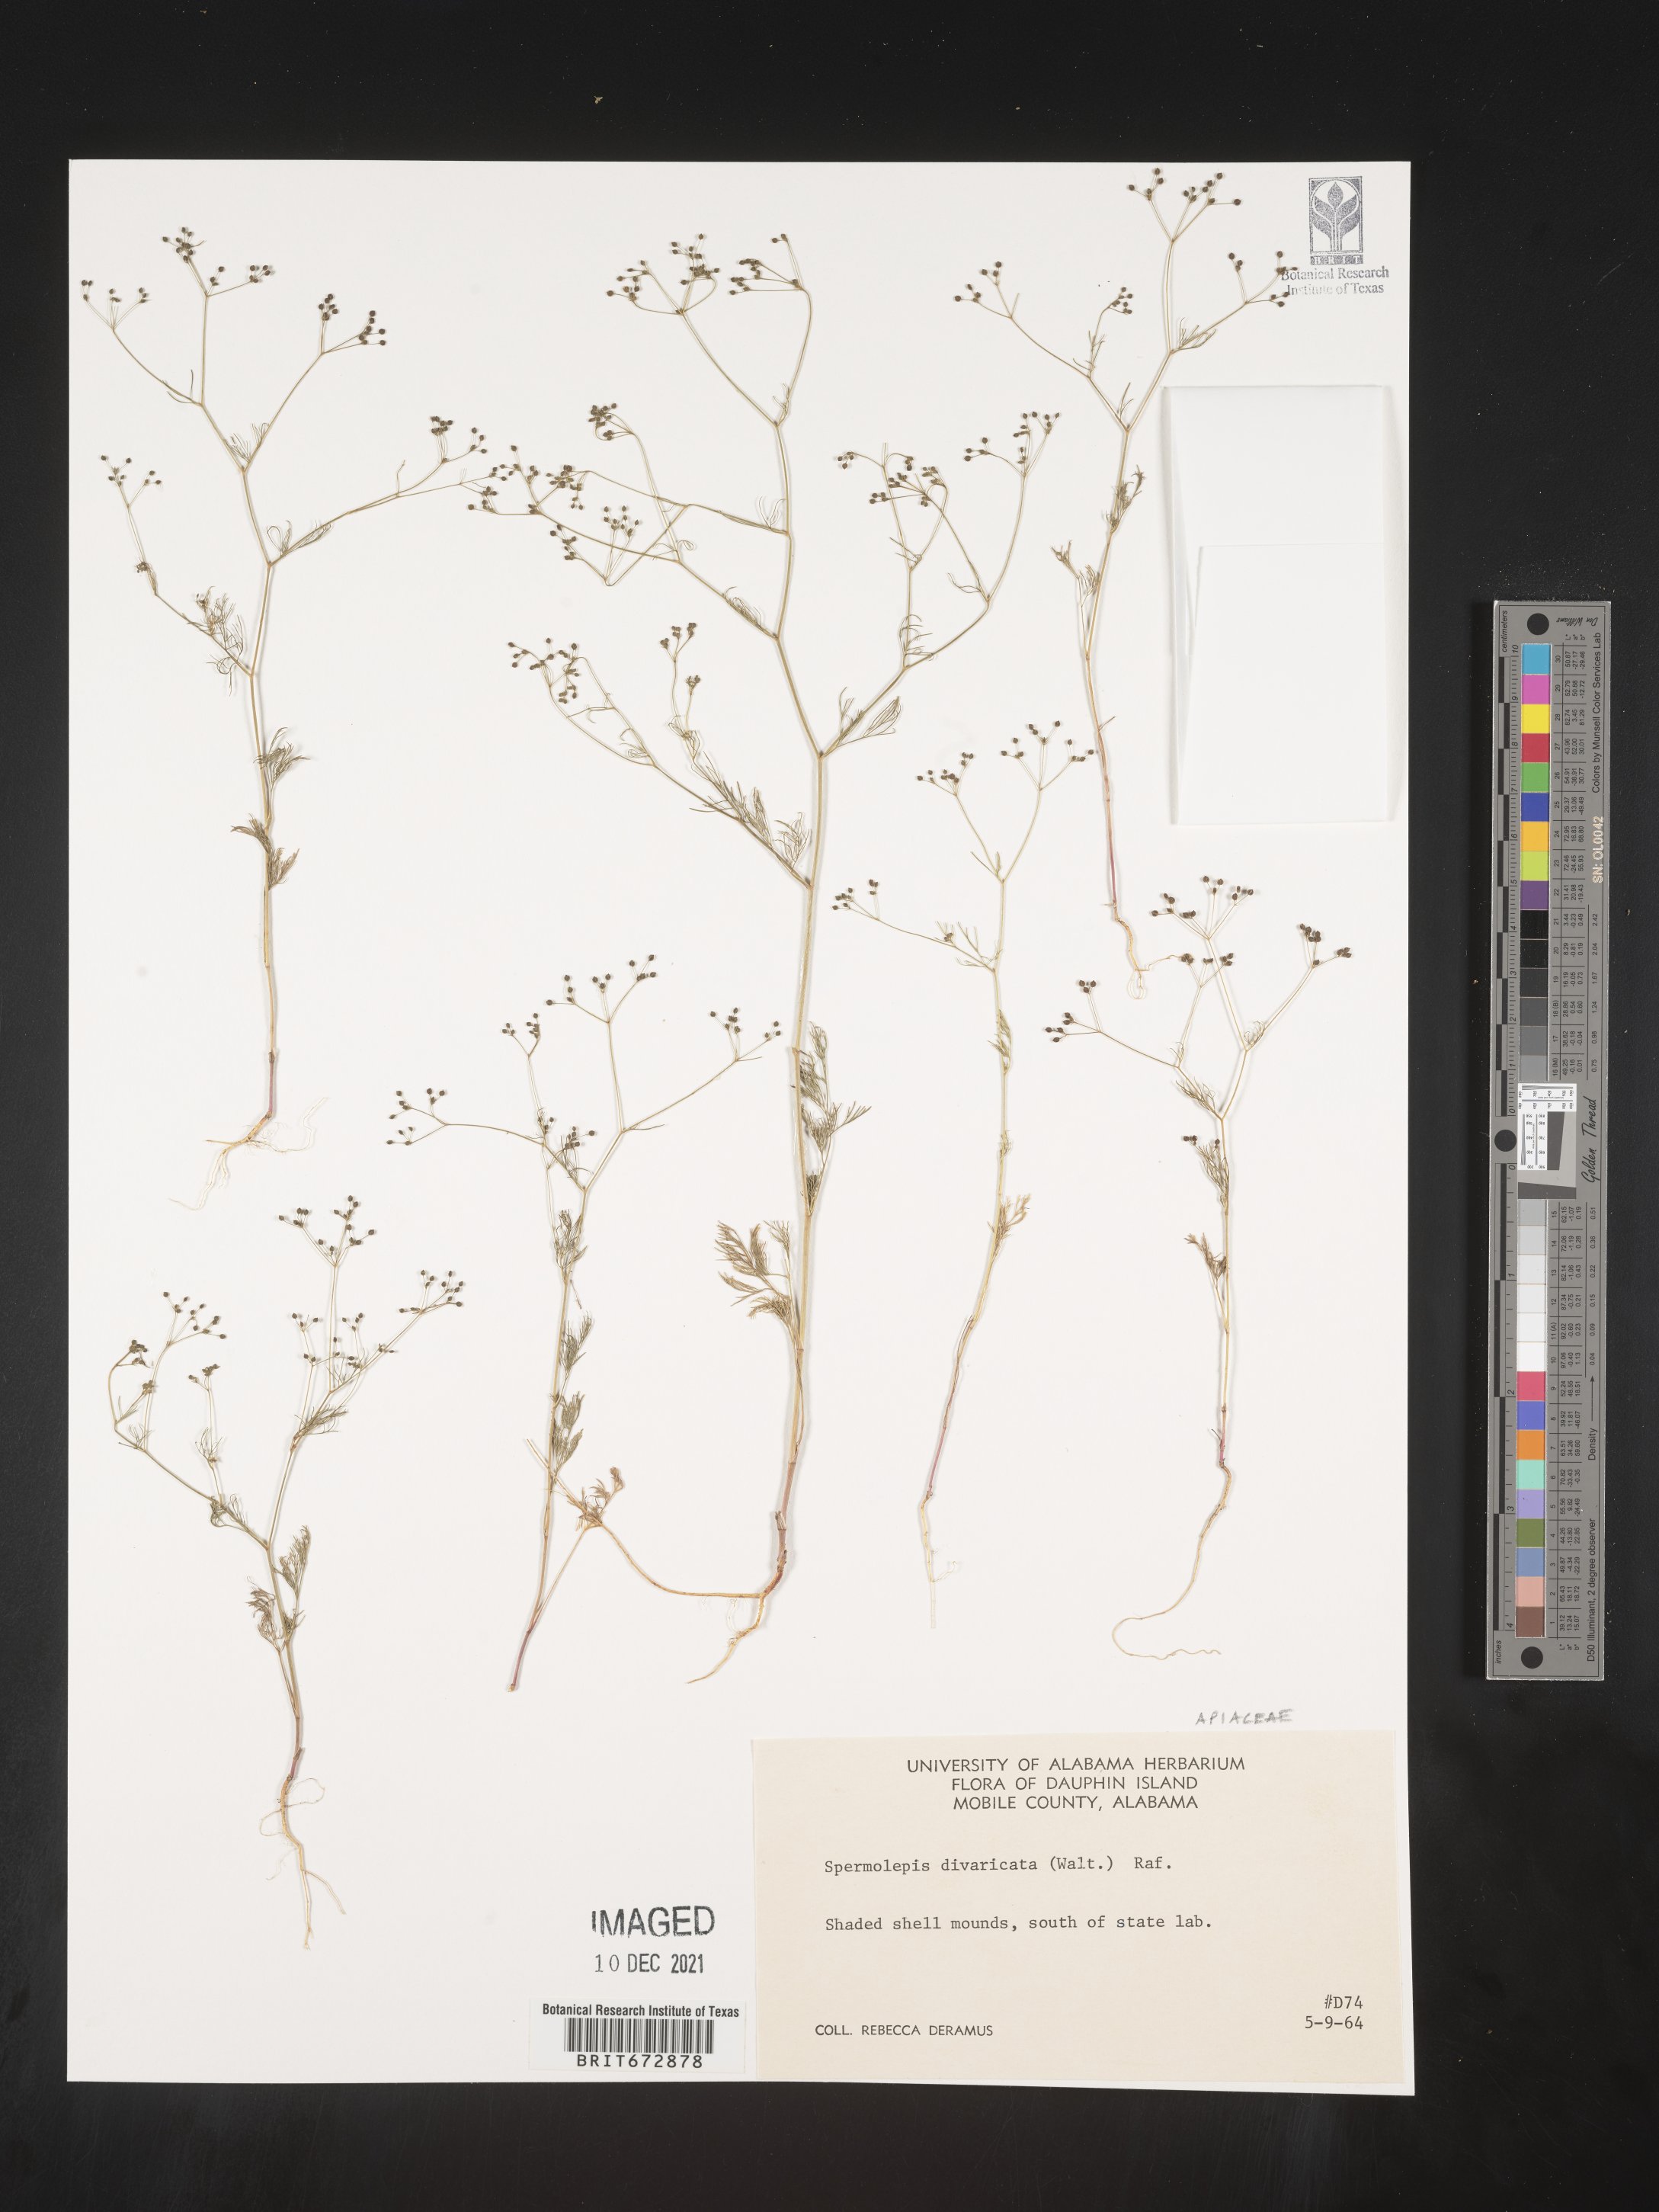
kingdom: Plantae
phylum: Tracheophyta
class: Magnoliopsida
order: Apiales
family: Apiaceae
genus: Spermolepis
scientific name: Spermolepis divaricata
